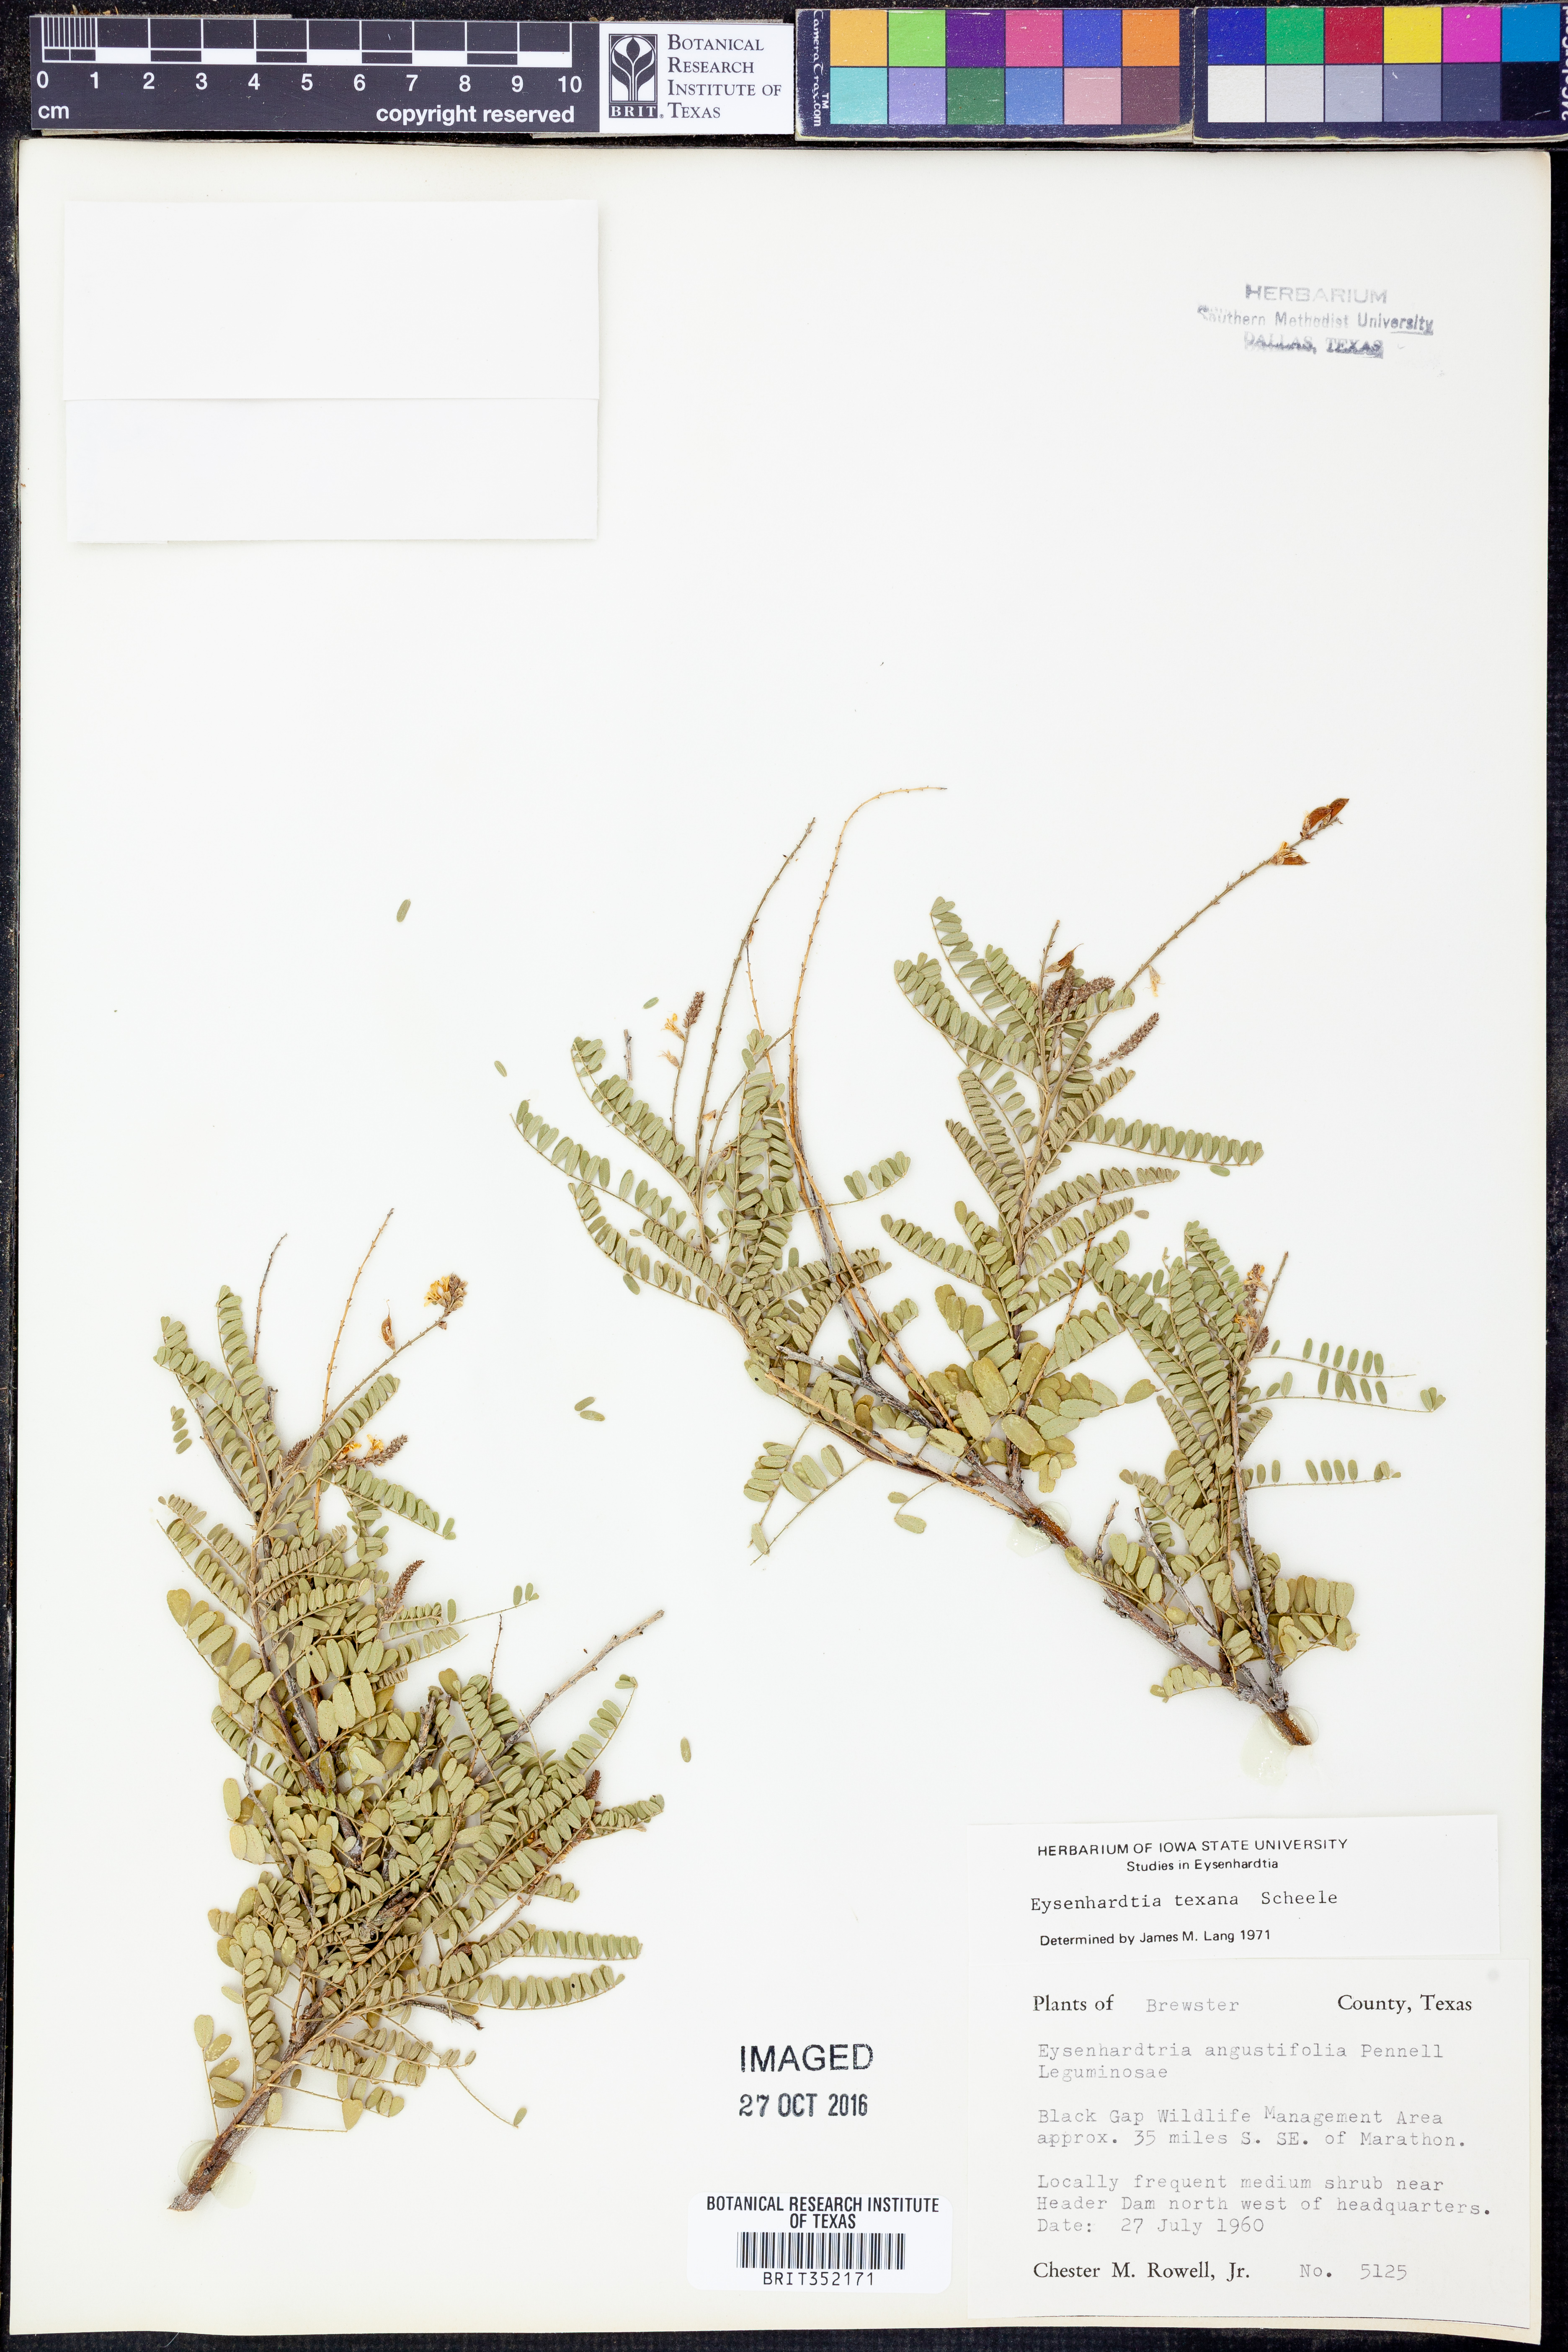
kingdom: Plantae
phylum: Tracheophyta
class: Magnoliopsida
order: Fabales
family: Fabaceae
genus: Eysenhardtia
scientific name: Eysenhardtia texana
